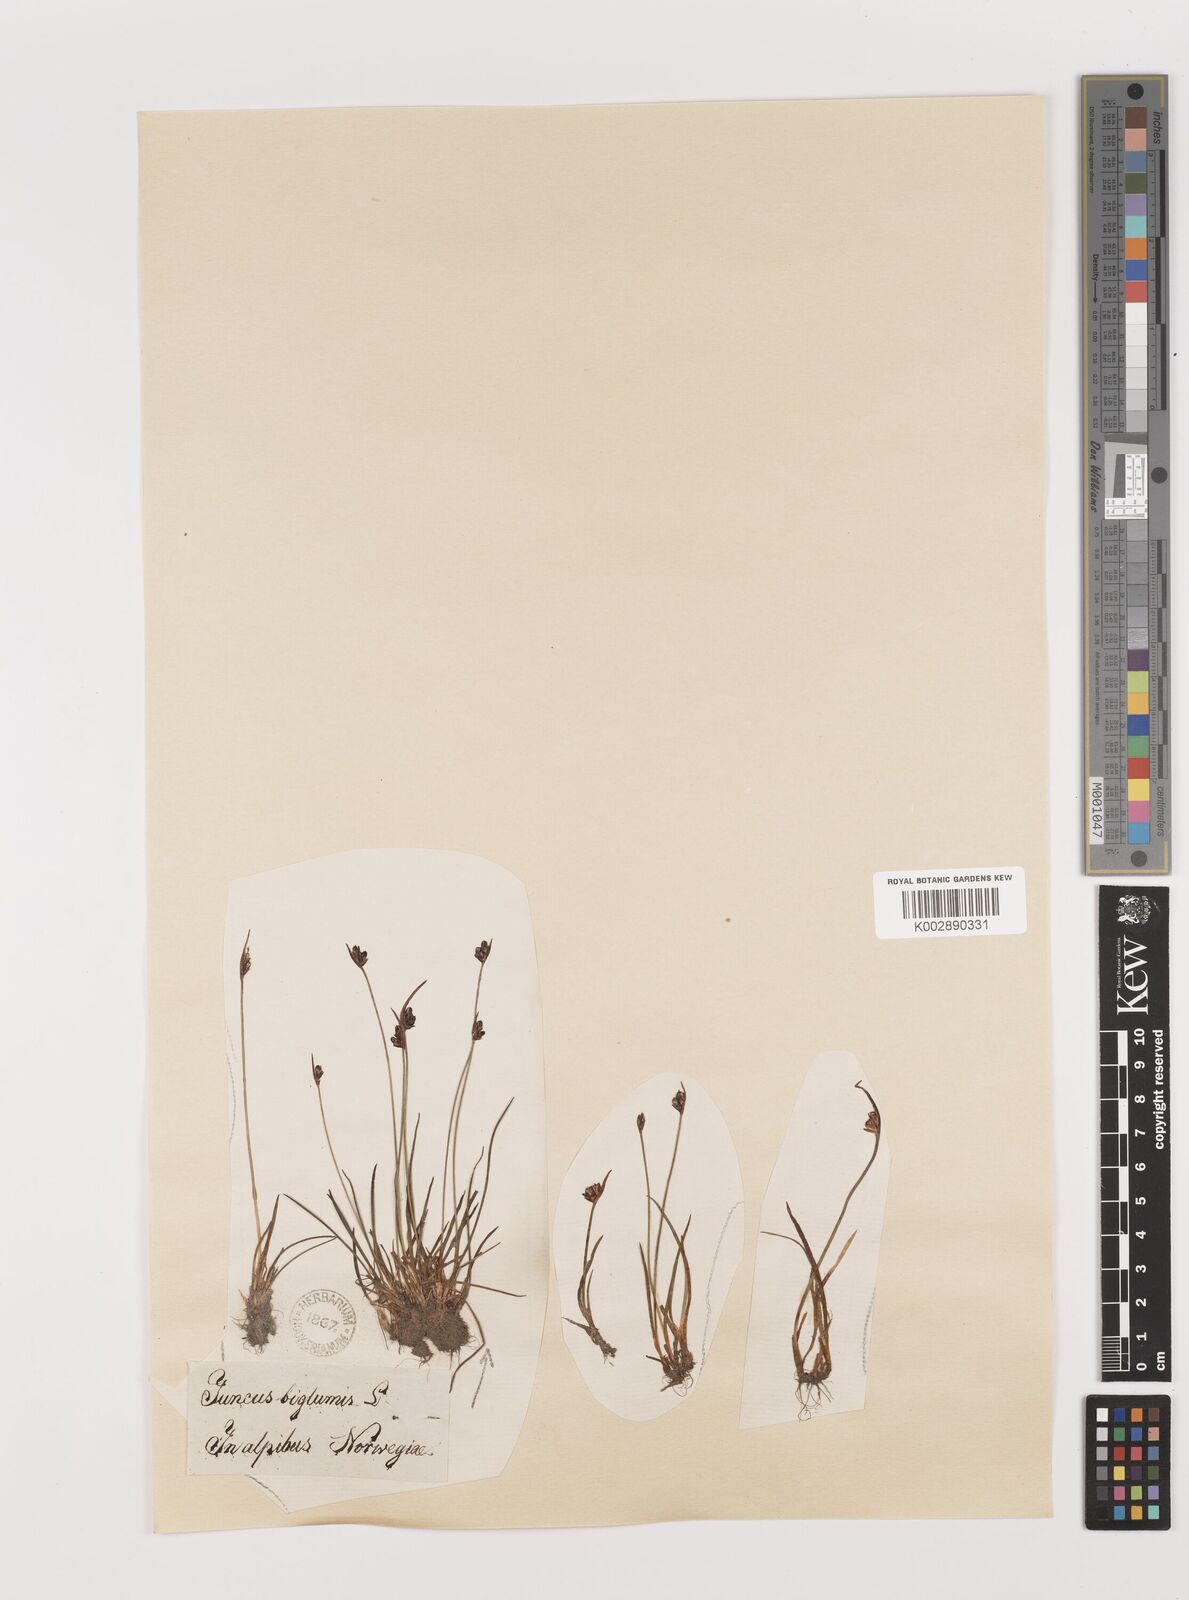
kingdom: Plantae
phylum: Tracheophyta
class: Liliopsida
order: Poales
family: Juncaceae
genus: Juncus
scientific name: Juncus biglumis
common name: Two-flowered rush
